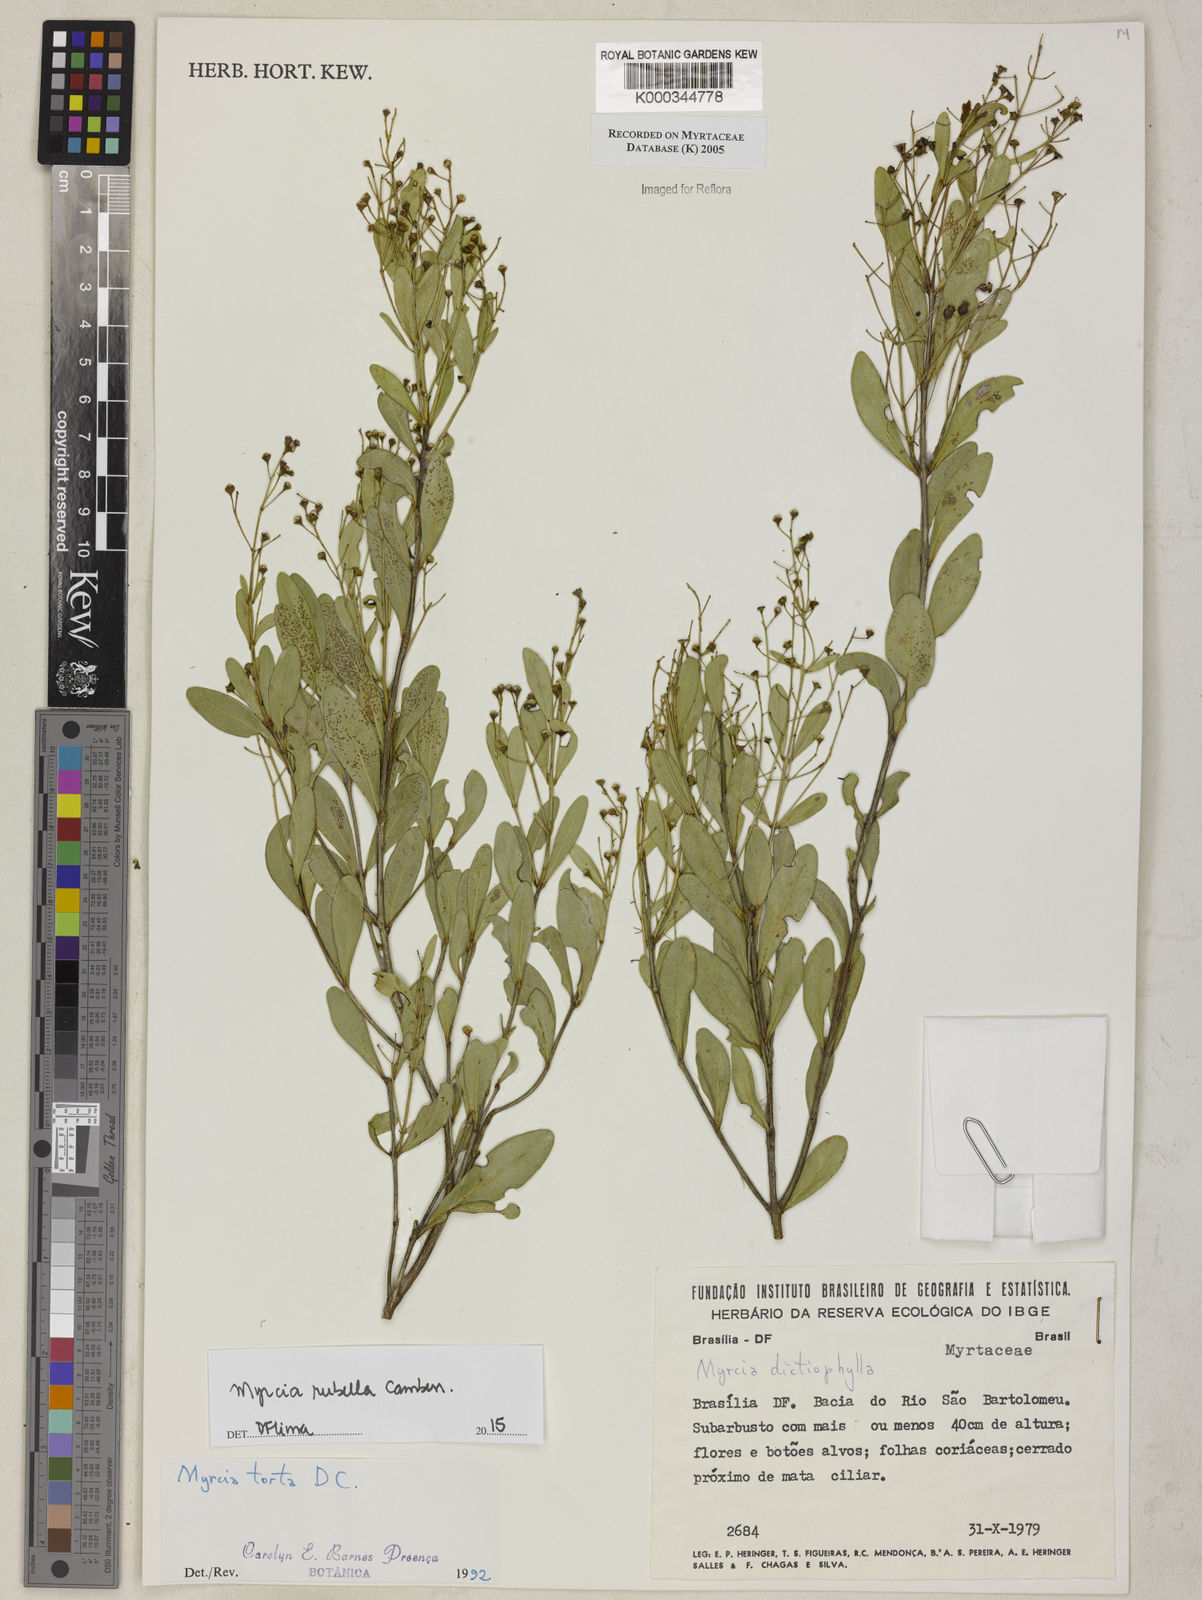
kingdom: Plantae
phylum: Tracheophyta
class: Magnoliopsida
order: Myrtales
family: Myrtaceae
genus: Myrcia
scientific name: Myrcia guianensis
